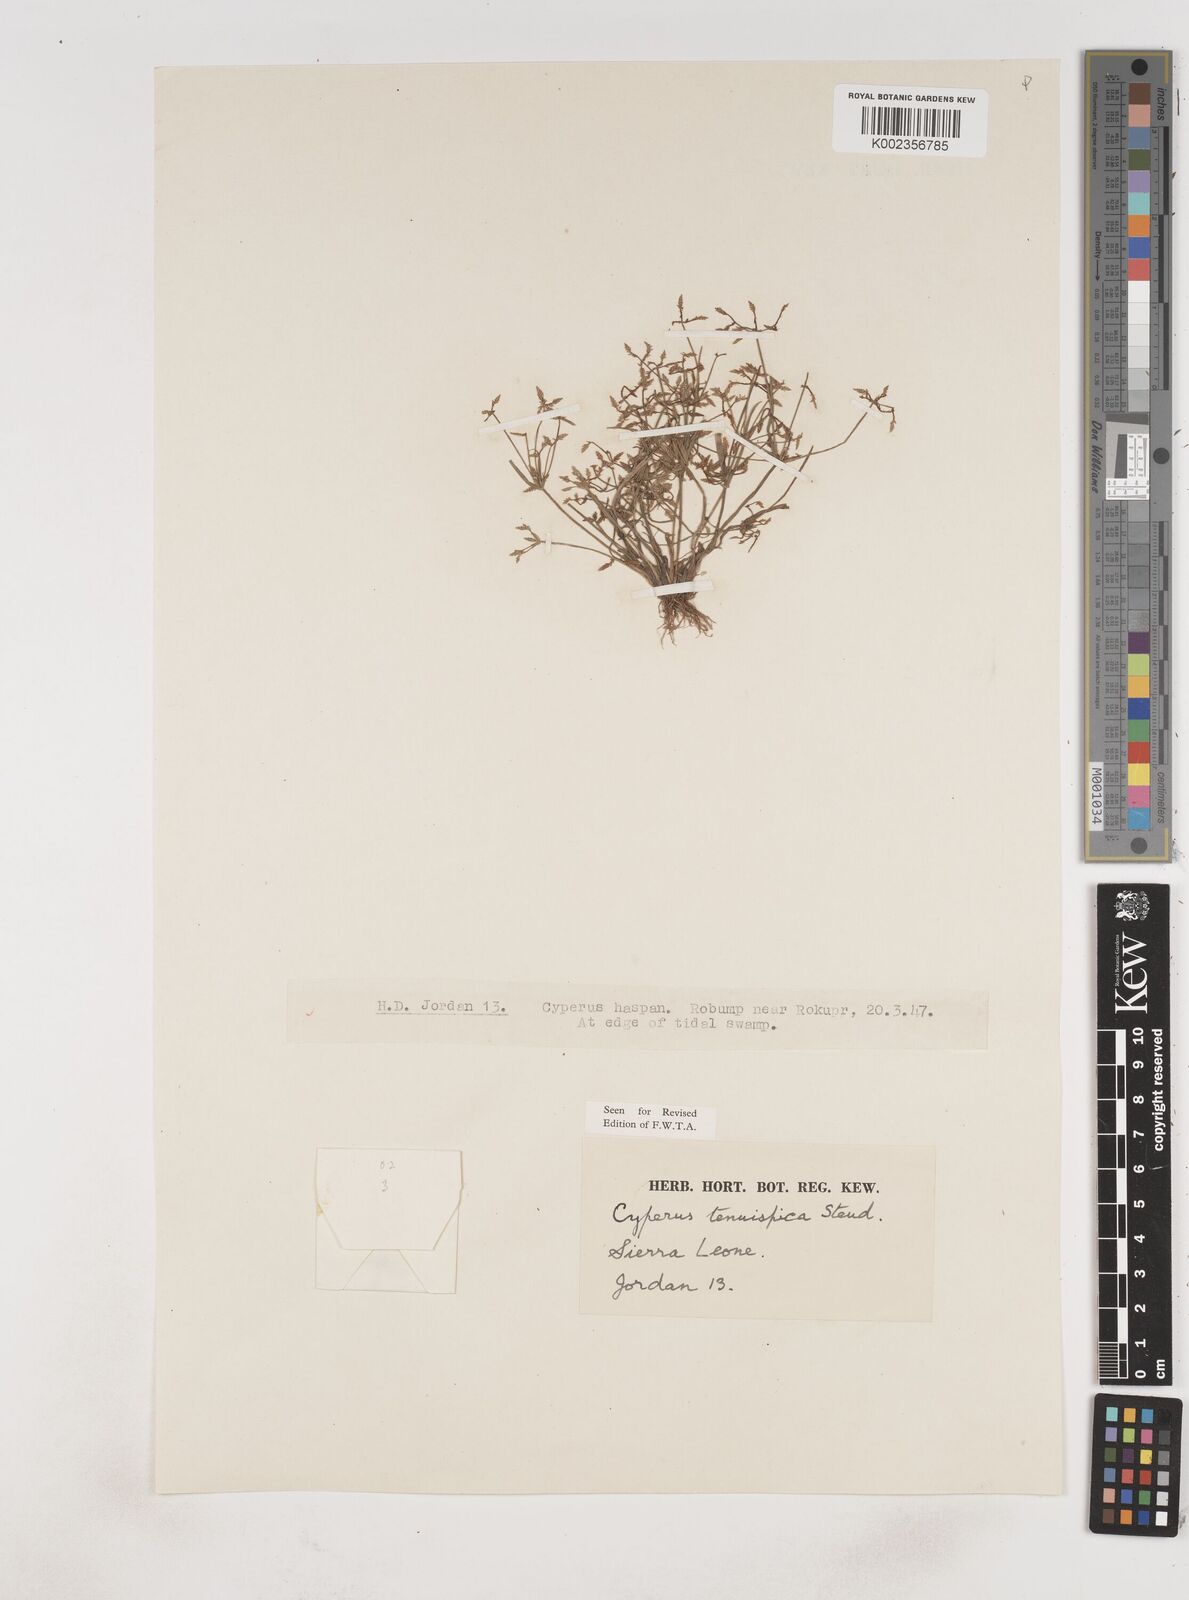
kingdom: Plantae
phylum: Tracheophyta
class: Liliopsida
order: Poales
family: Cyperaceae
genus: Cyperus
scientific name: Cyperus tenuispica
